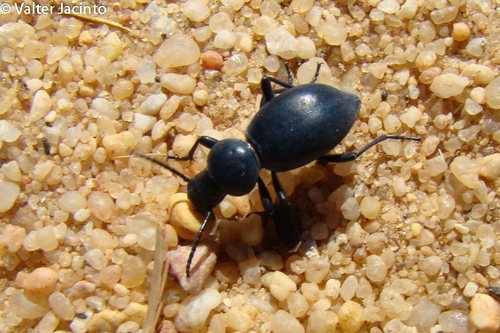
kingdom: Animalia
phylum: Arthropoda
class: Insecta
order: Coleoptera
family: Tenebrionidae
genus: Tentyria
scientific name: Tentyria sinuaticollis
